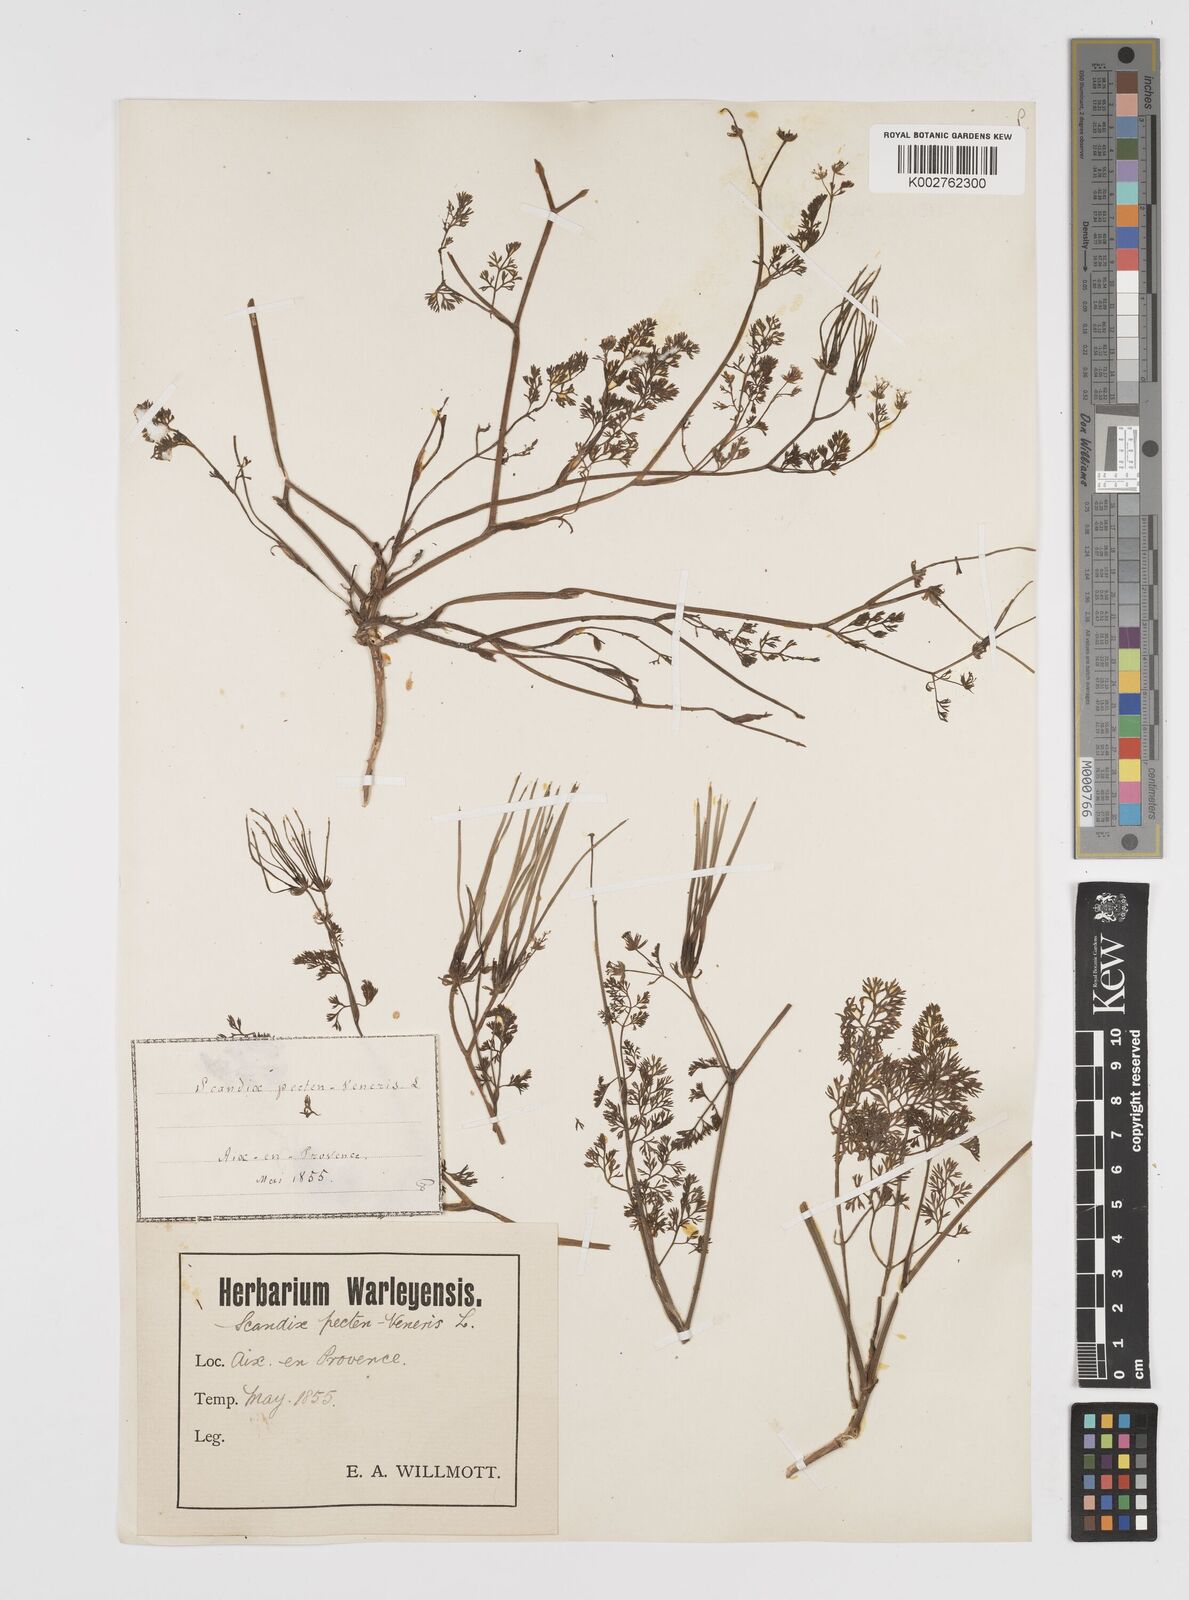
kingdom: Plantae
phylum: Tracheophyta
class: Magnoliopsida
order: Apiales
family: Apiaceae
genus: Scandix
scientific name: Scandix pecten-veneris
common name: Shepherd's-needle
